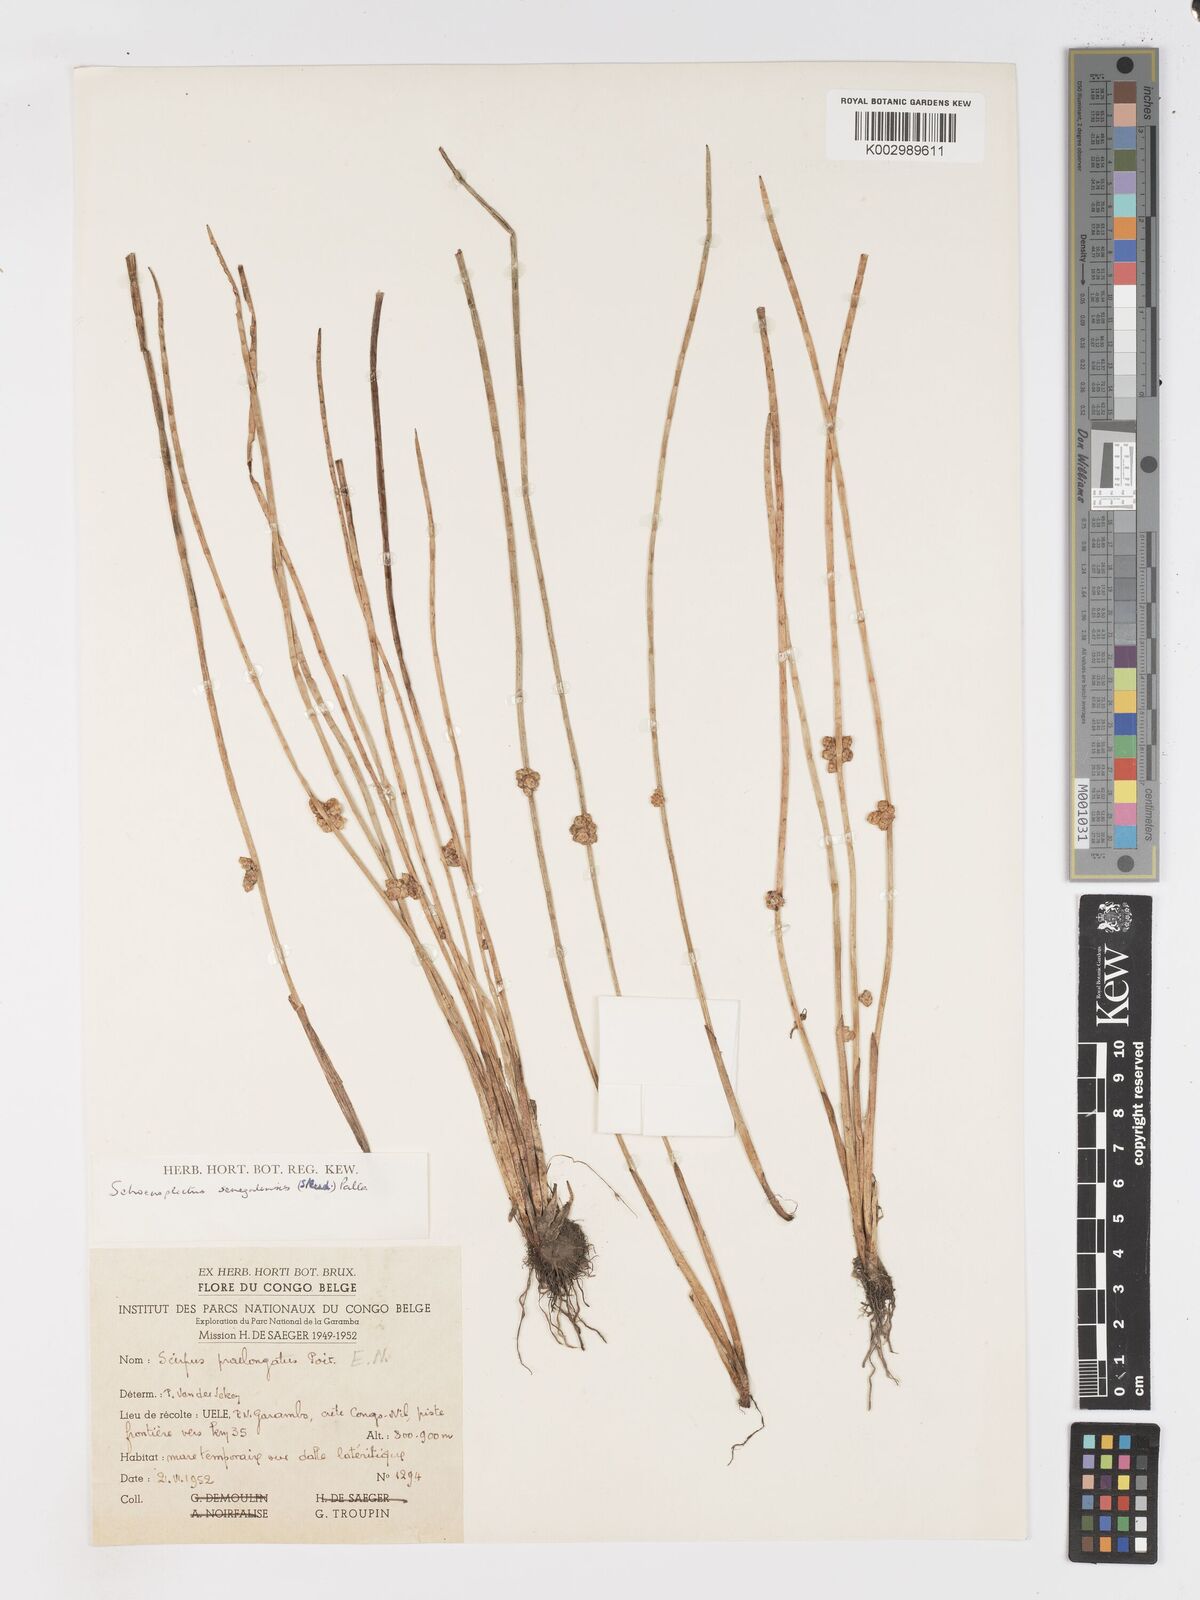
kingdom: Plantae
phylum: Tracheophyta
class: Liliopsida
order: Poales
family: Cyperaceae
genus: Schoenoplectiella
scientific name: Schoenoplectiella senegalensis
